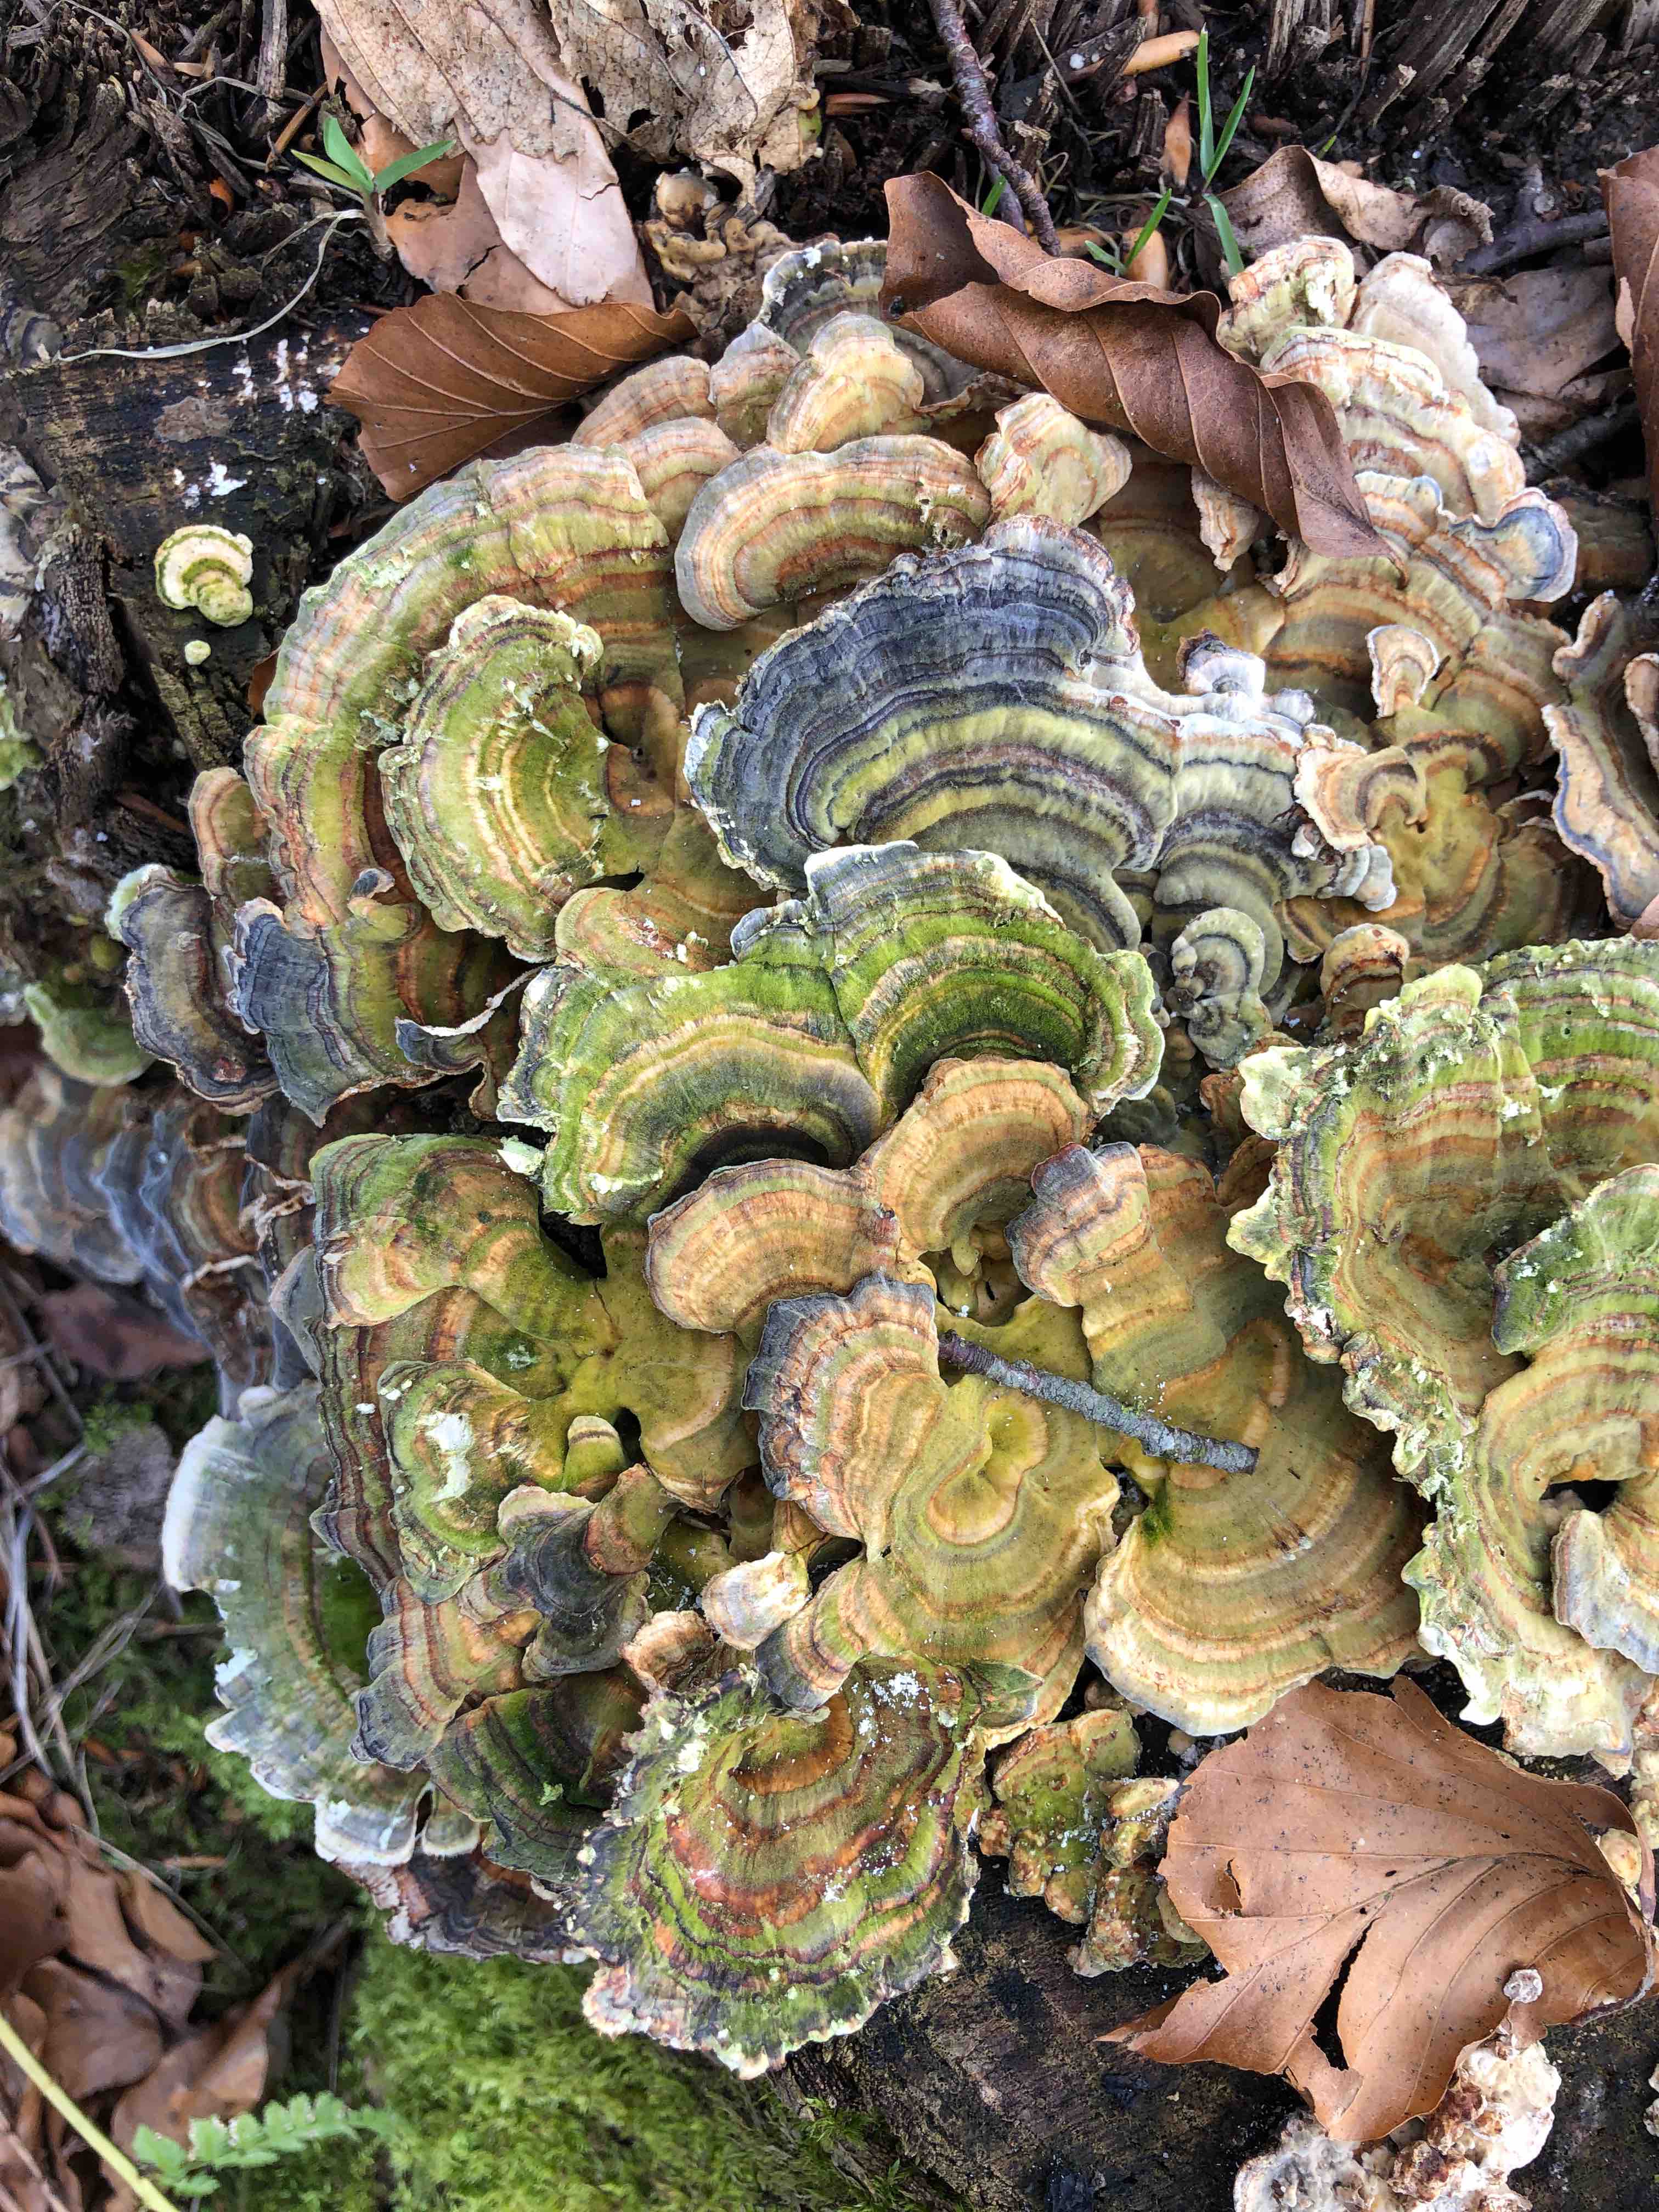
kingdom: Fungi
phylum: Basidiomycota
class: Agaricomycetes
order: Polyporales
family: Polyporaceae
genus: Trametes
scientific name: Trametes versicolor
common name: broget læderporesvamp
